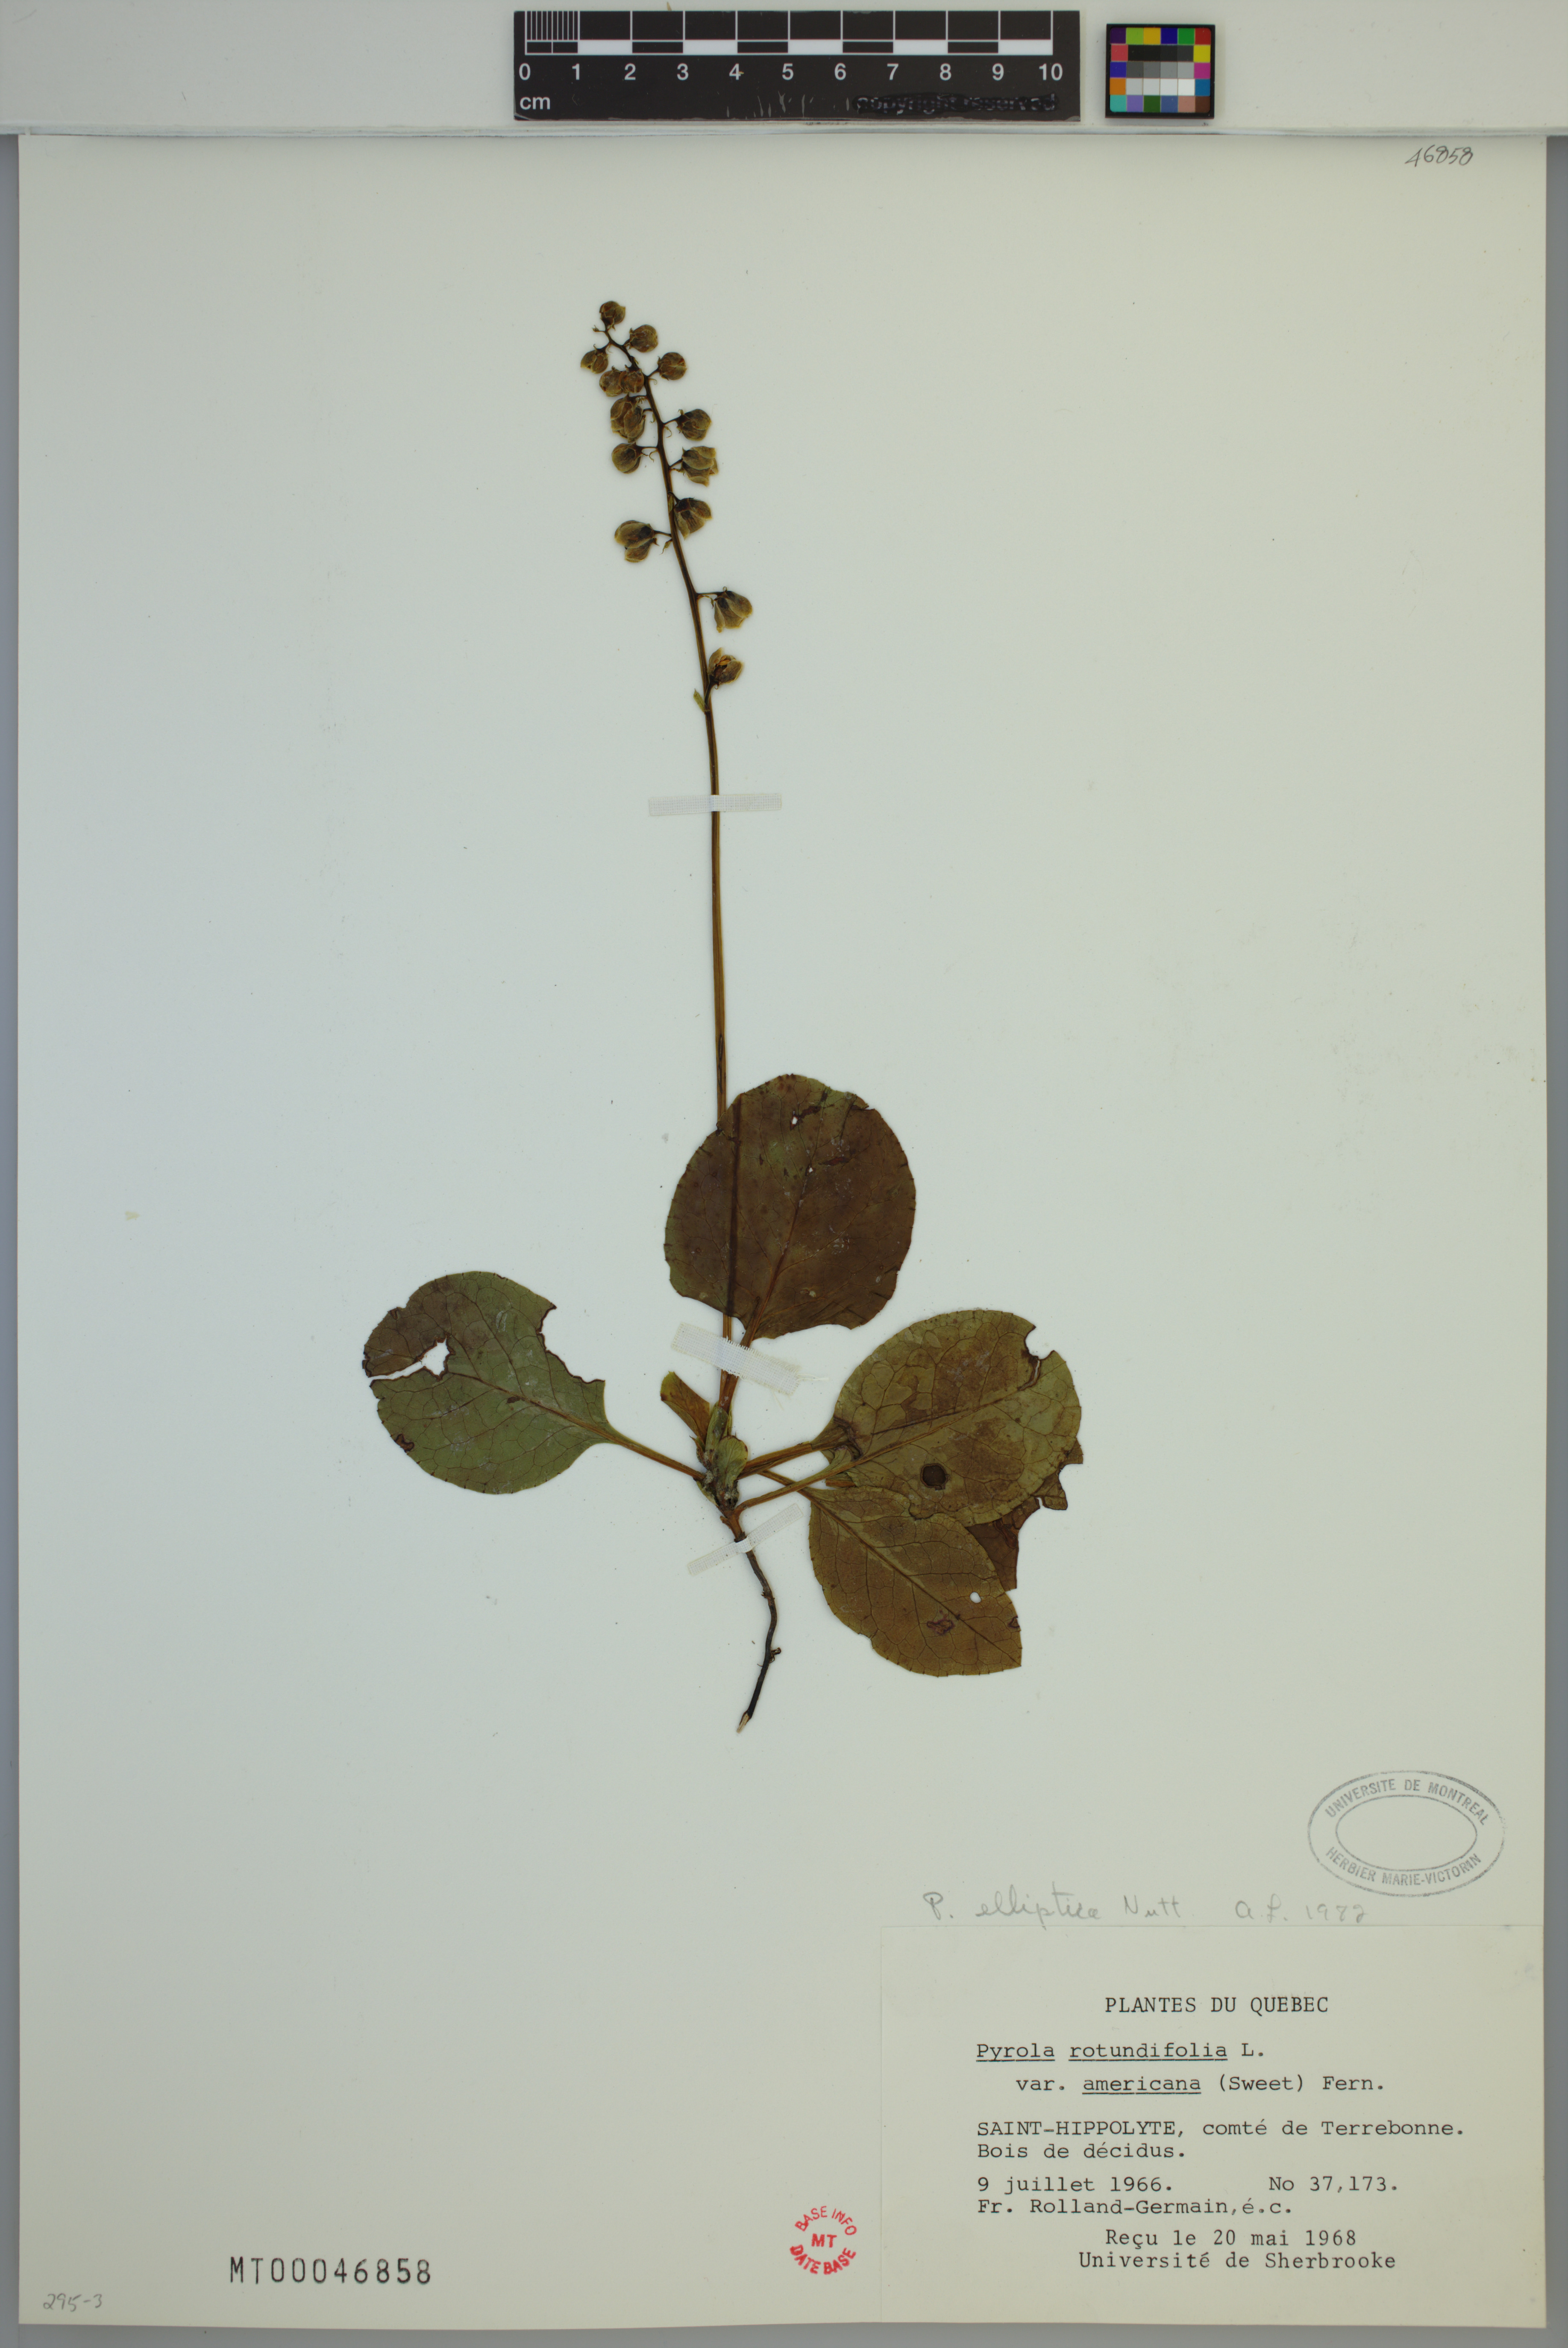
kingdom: Plantae
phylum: Tracheophyta
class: Magnoliopsida
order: Ericales
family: Ericaceae
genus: Pyrola
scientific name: Pyrola elliptica
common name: Shinleaf
